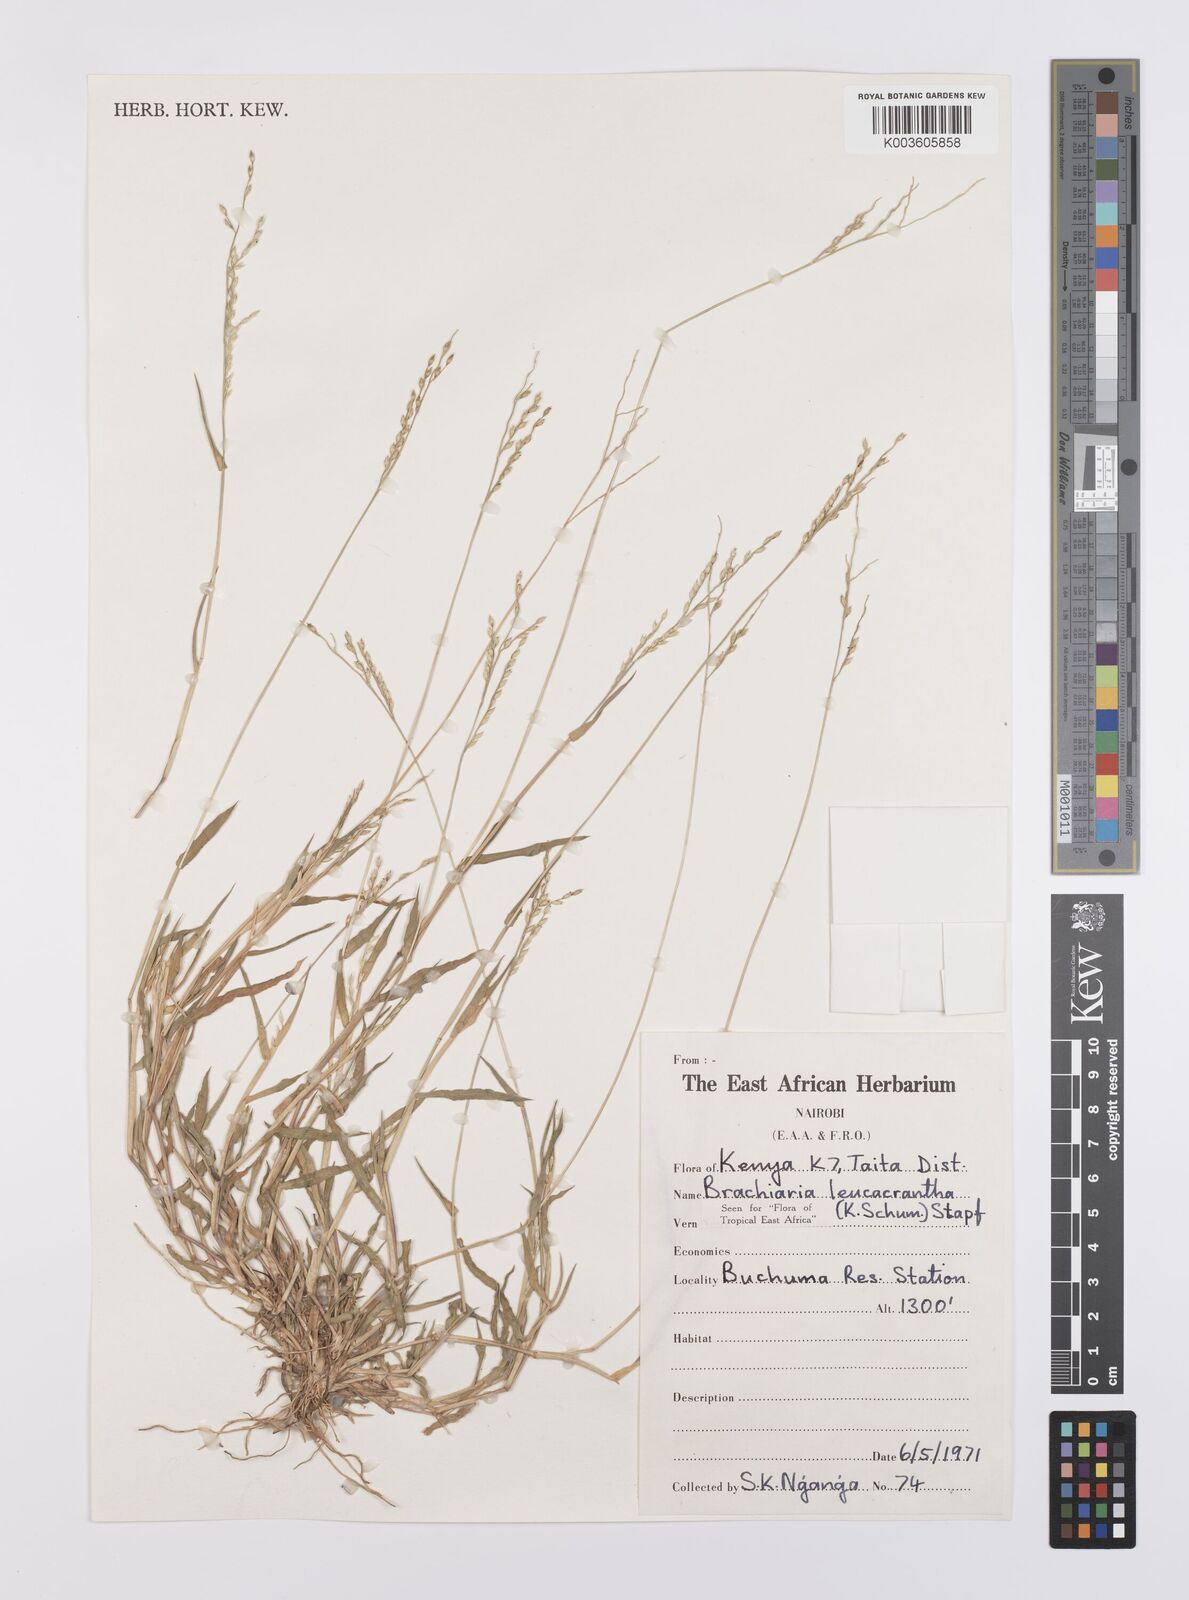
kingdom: Plantae
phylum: Tracheophyta
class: Liliopsida
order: Poales
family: Poaceae
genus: Urochloa
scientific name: Urochloa xantholeuca
